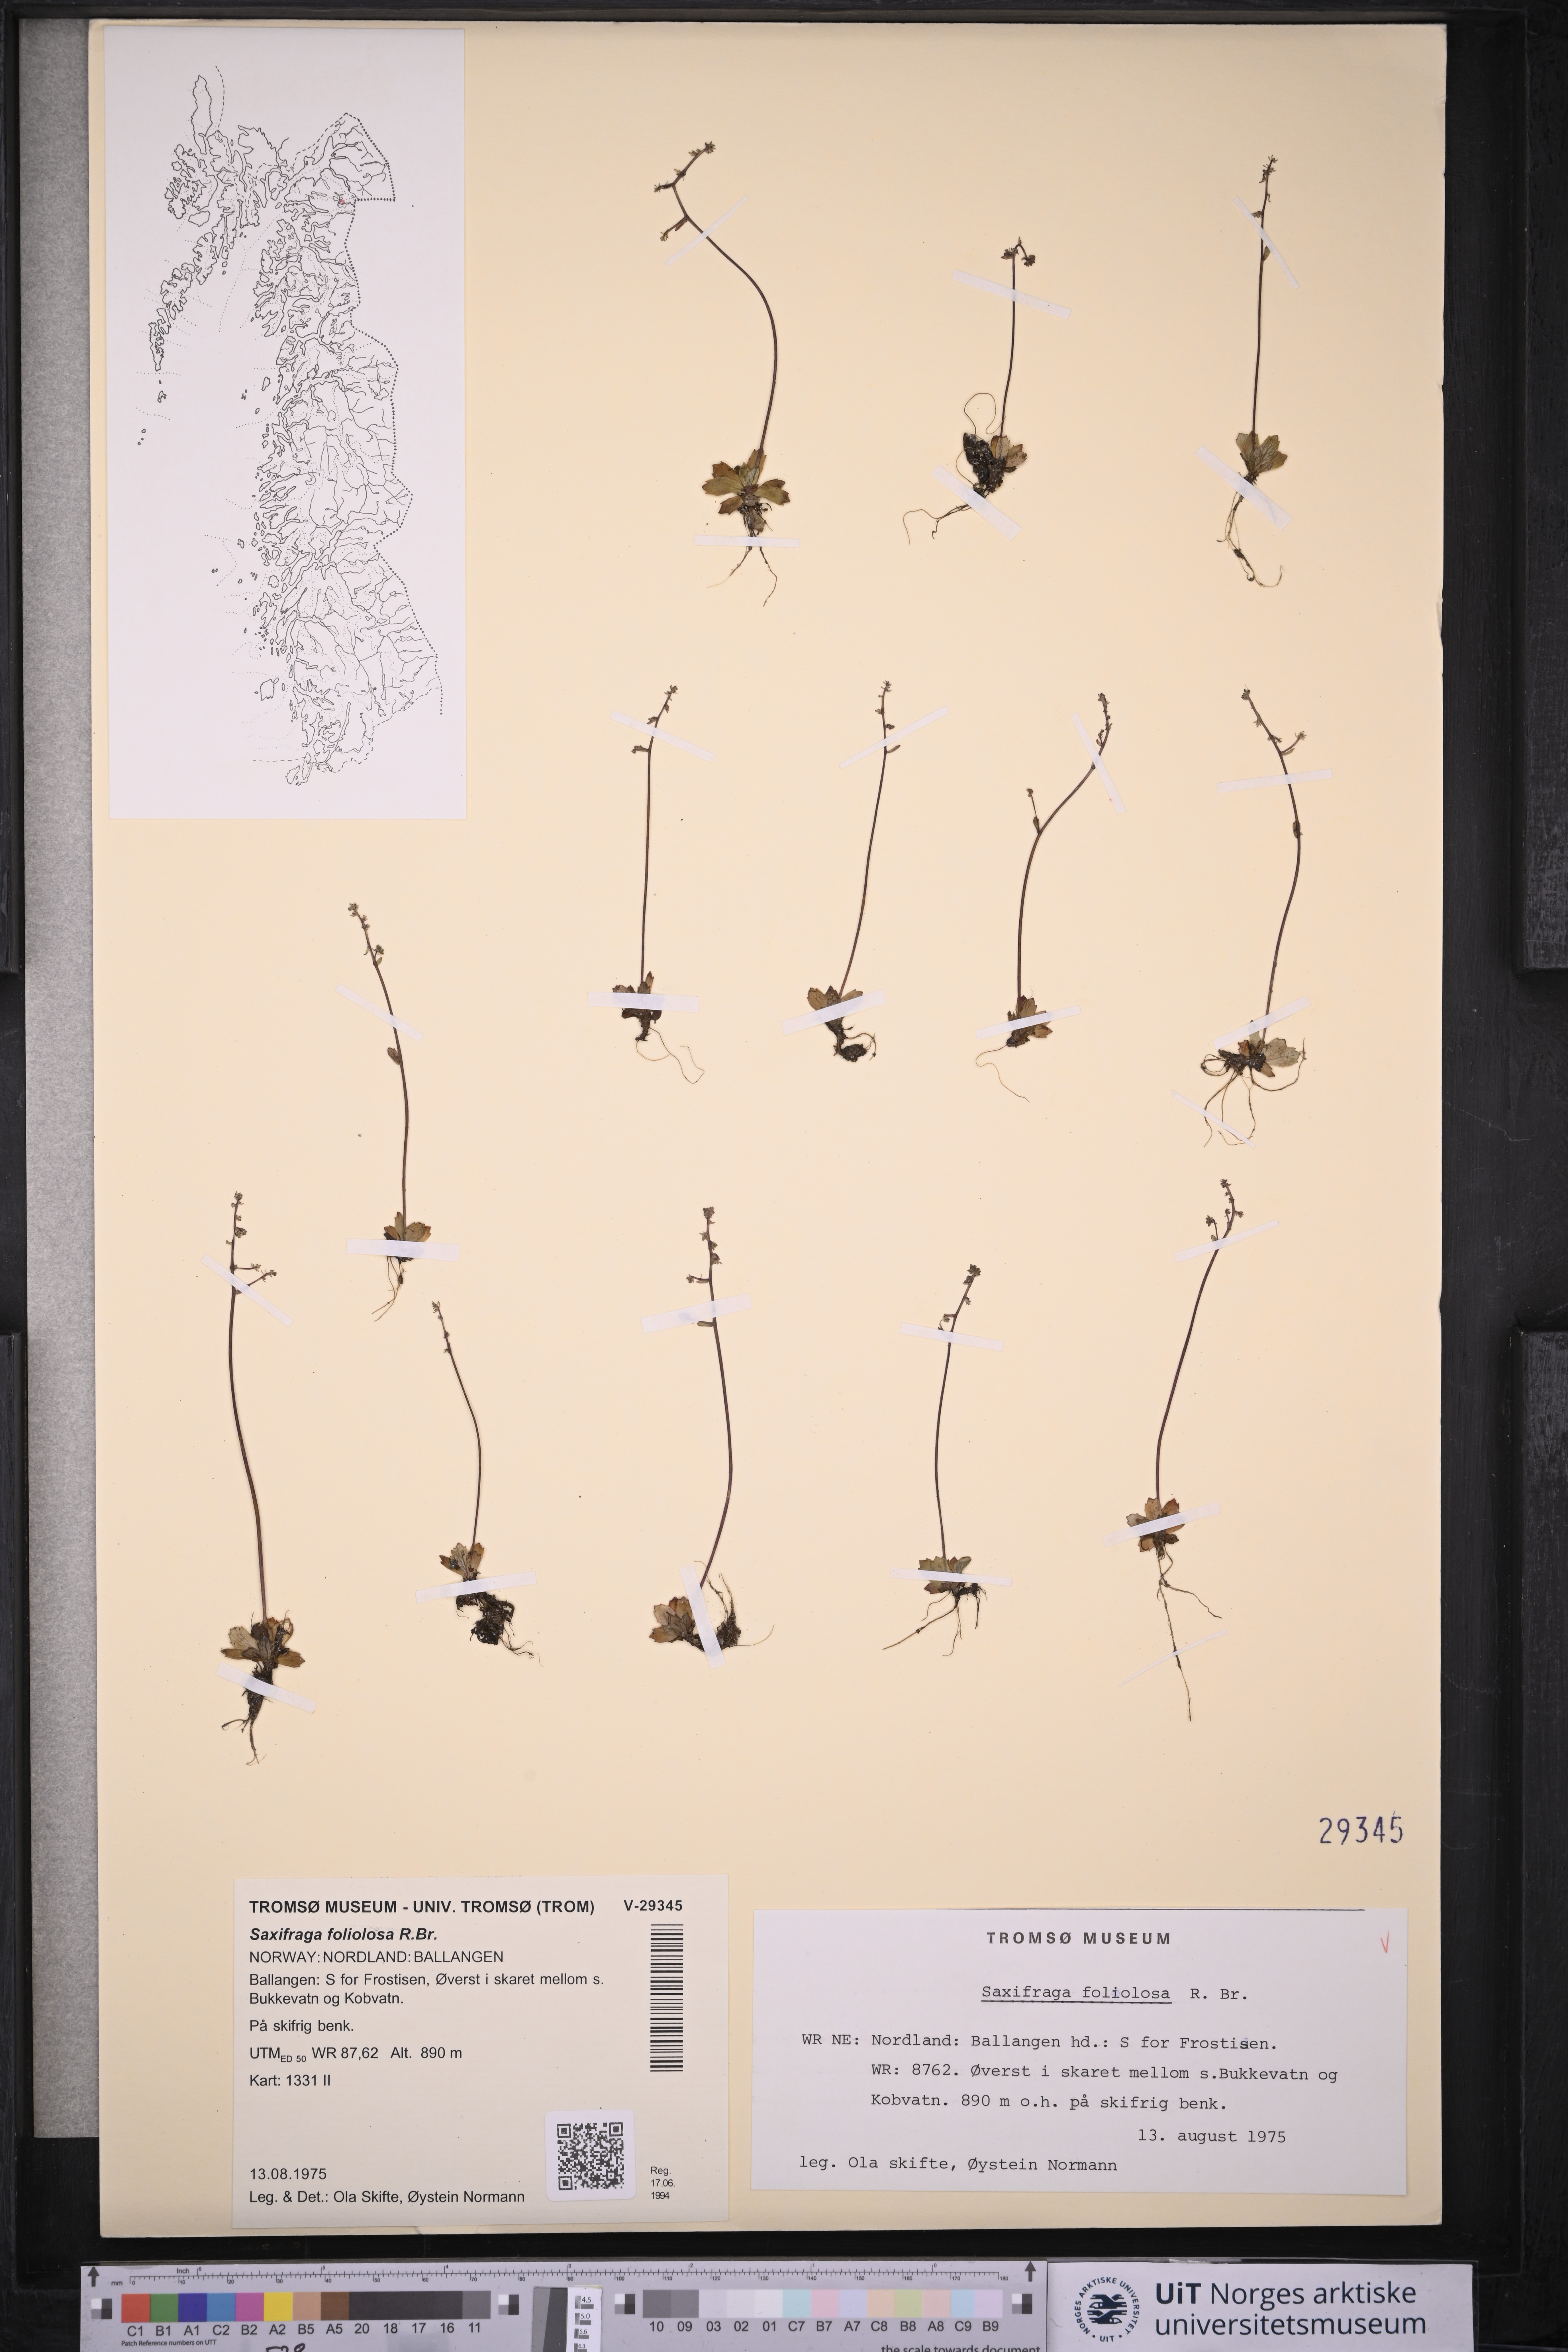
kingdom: Plantae
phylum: Tracheophyta
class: Magnoliopsida
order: Saxifragales
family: Saxifragaceae
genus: Micranthes
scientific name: Micranthes foliolosa
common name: Leafystem saxifrage
